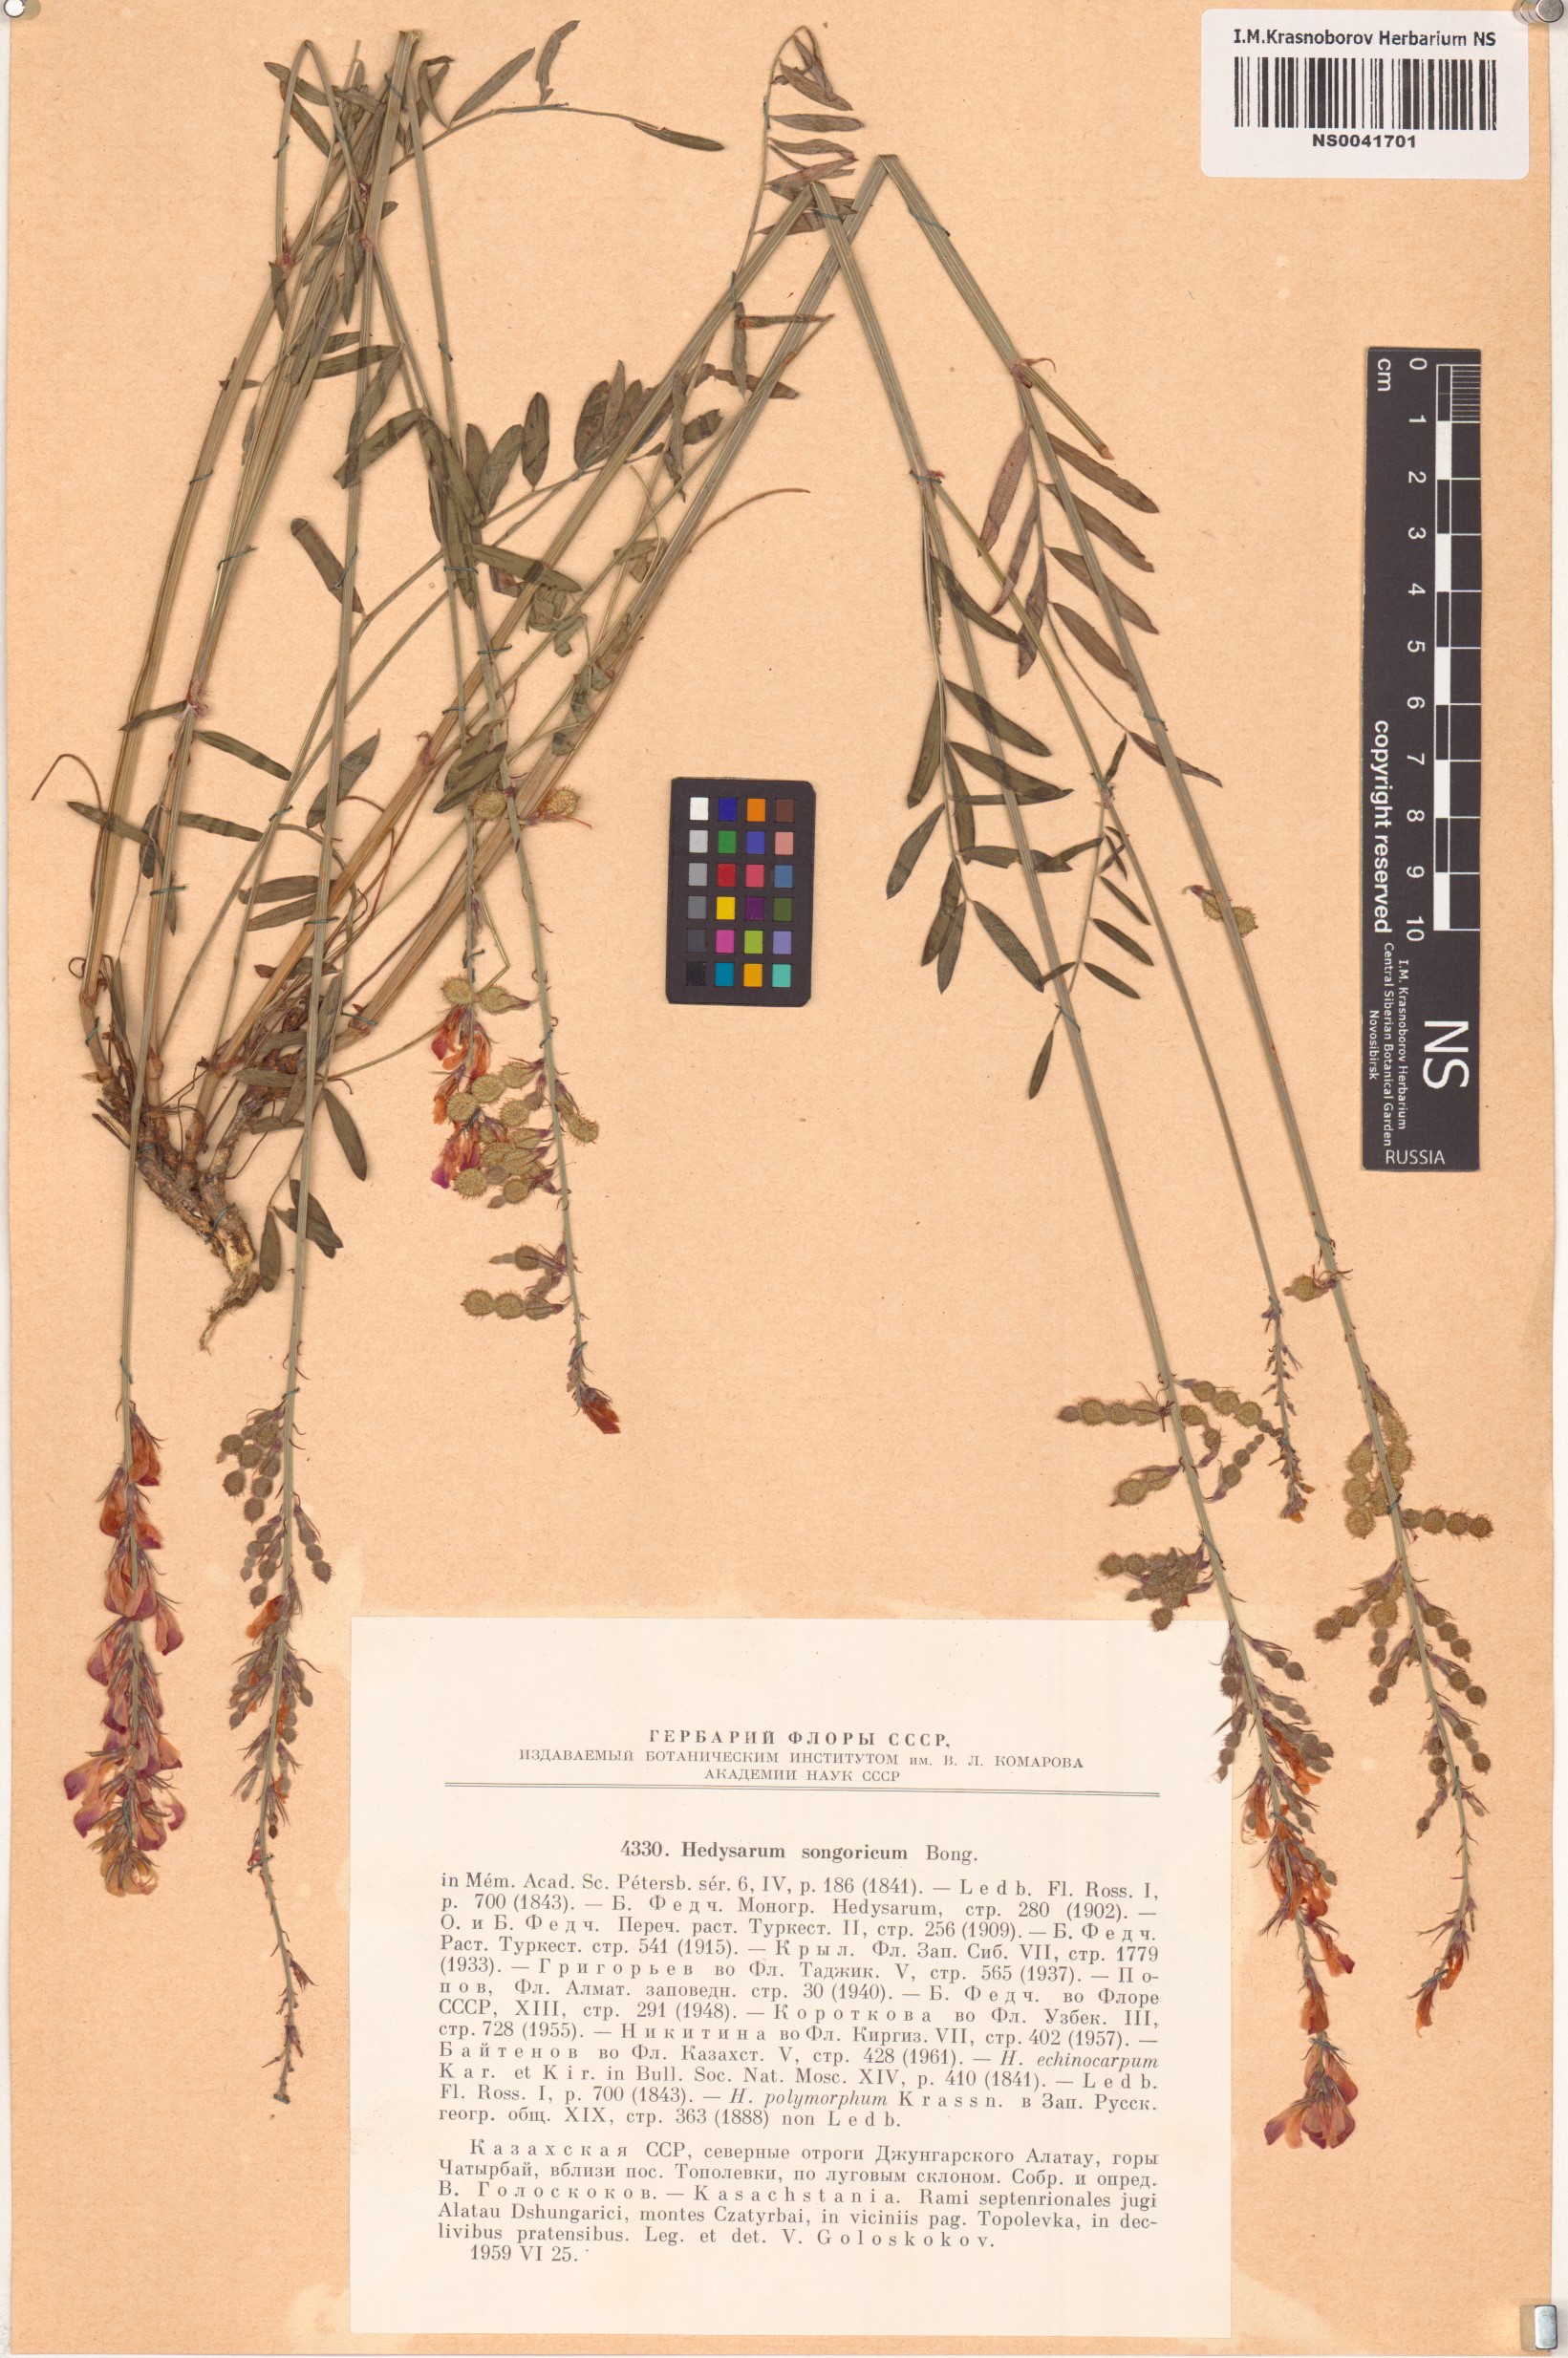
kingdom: Plantae
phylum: Tracheophyta
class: Magnoliopsida
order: Fabales
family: Fabaceae
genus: Hedysarum
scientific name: Hedysarum songaricum
